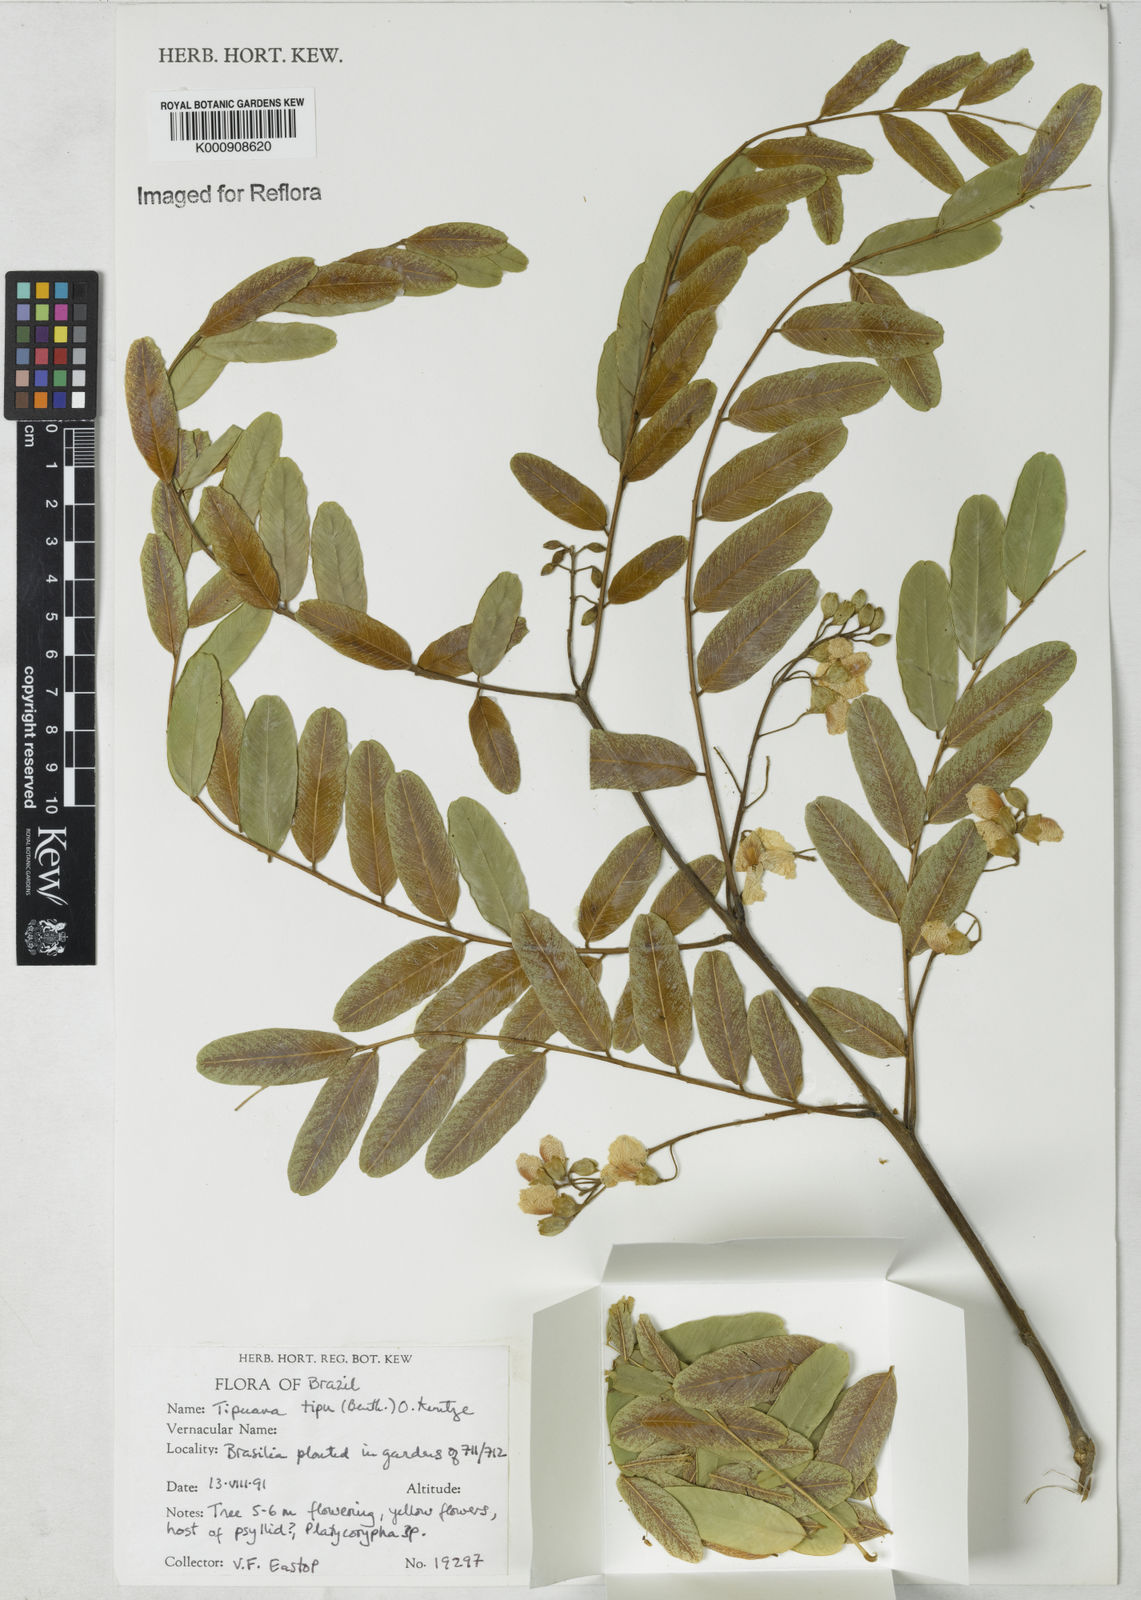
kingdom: Plantae
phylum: Tracheophyta
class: Magnoliopsida
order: Fabales
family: Fabaceae
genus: Tipuana
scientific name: Tipuana tipu
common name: Tiputree
